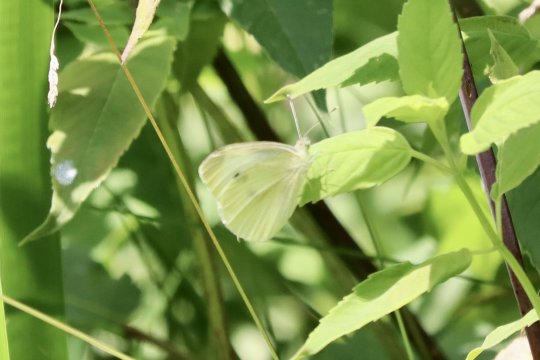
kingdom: Animalia
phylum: Arthropoda
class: Insecta
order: Lepidoptera
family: Pieridae
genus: Pieris
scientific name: Pieris rapae
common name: Cabbage White
